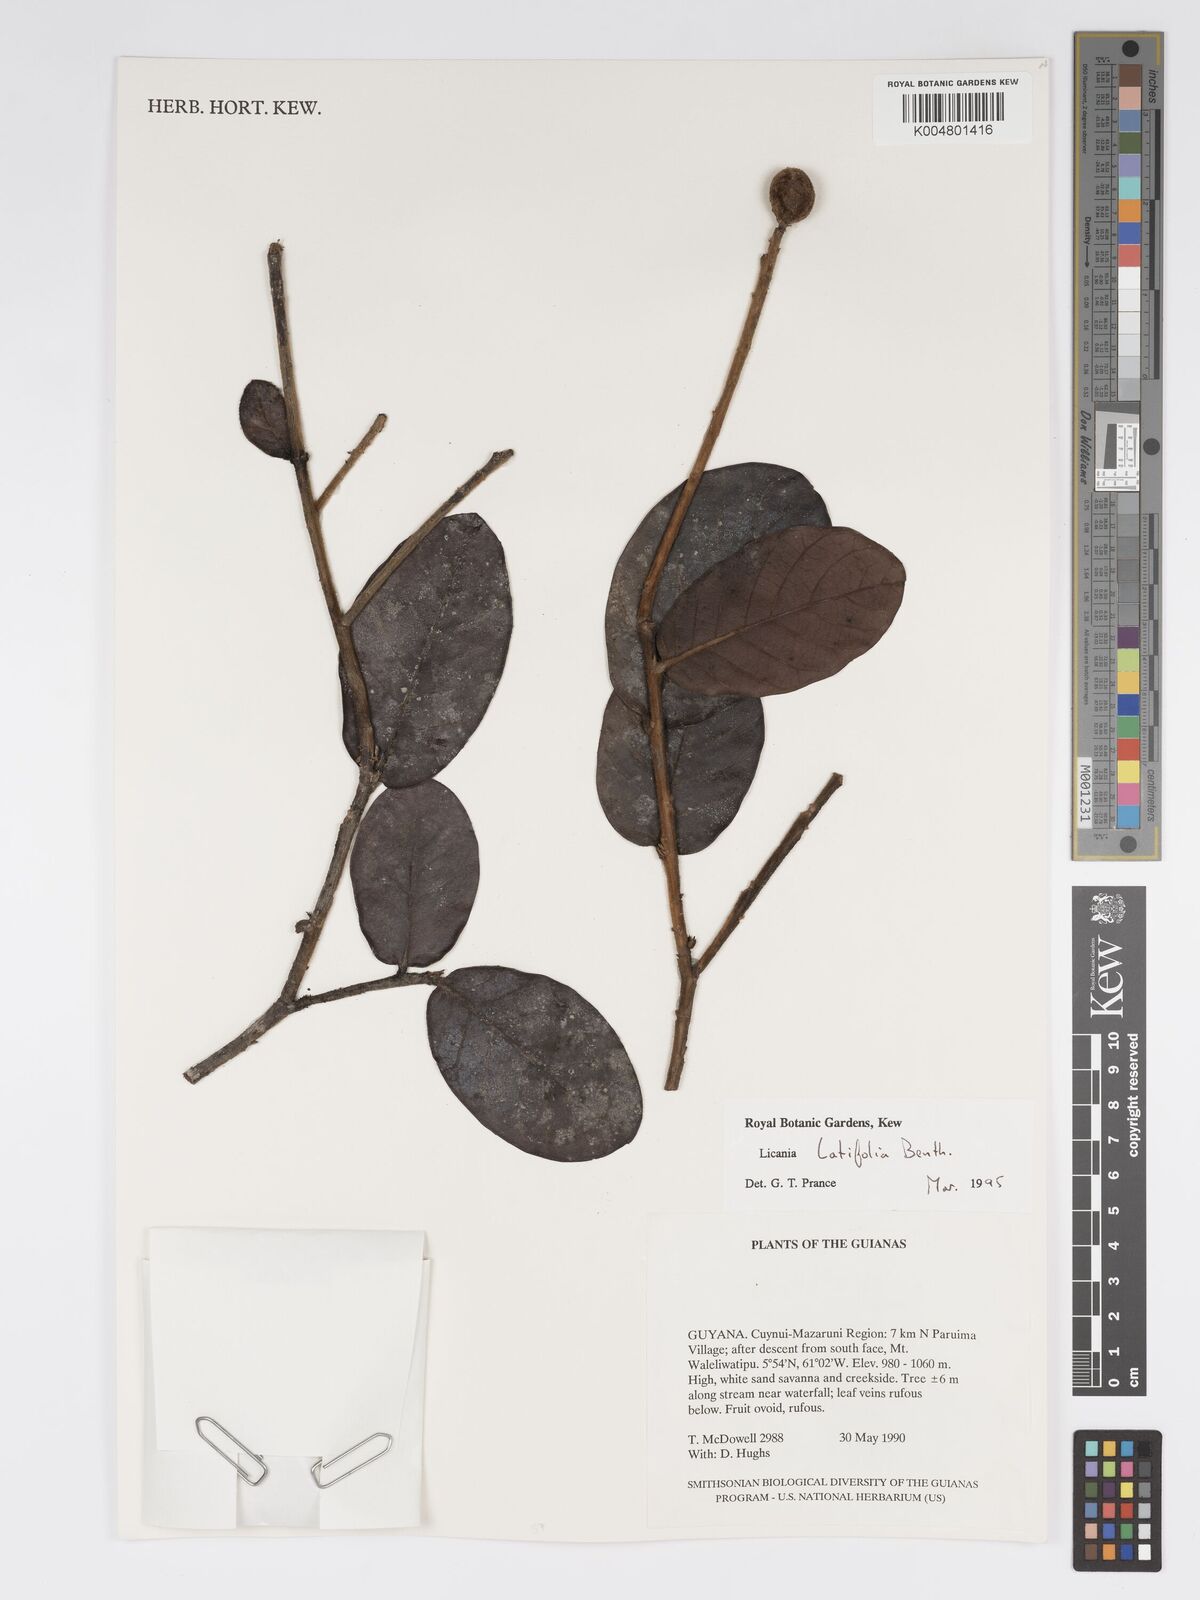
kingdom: Plantae
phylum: Tracheophyta
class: Magnoliopsida
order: Malpighiales
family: Chrysobalanaceae
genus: Hymenopus
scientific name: Hymenopus latifolius
